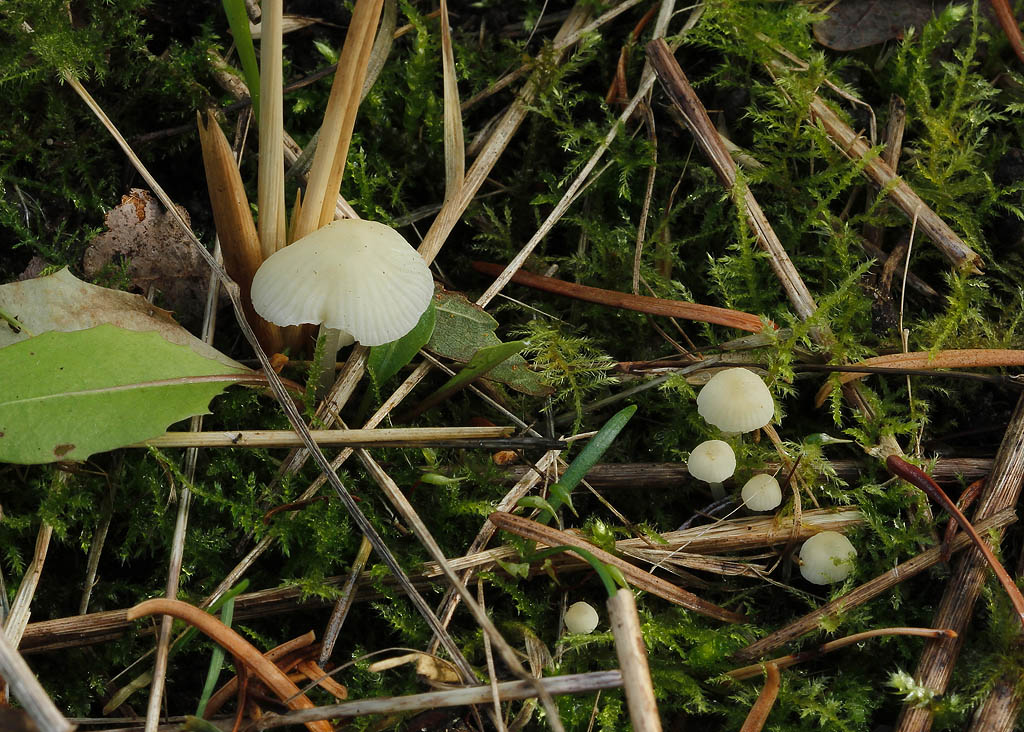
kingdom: Fungi
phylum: Basidiomycota
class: Agaricomycetes
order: Agaricales
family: Mycenaceae
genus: Atheniella
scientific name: Atheniella flavoalba
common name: gulhvid huesvamp
